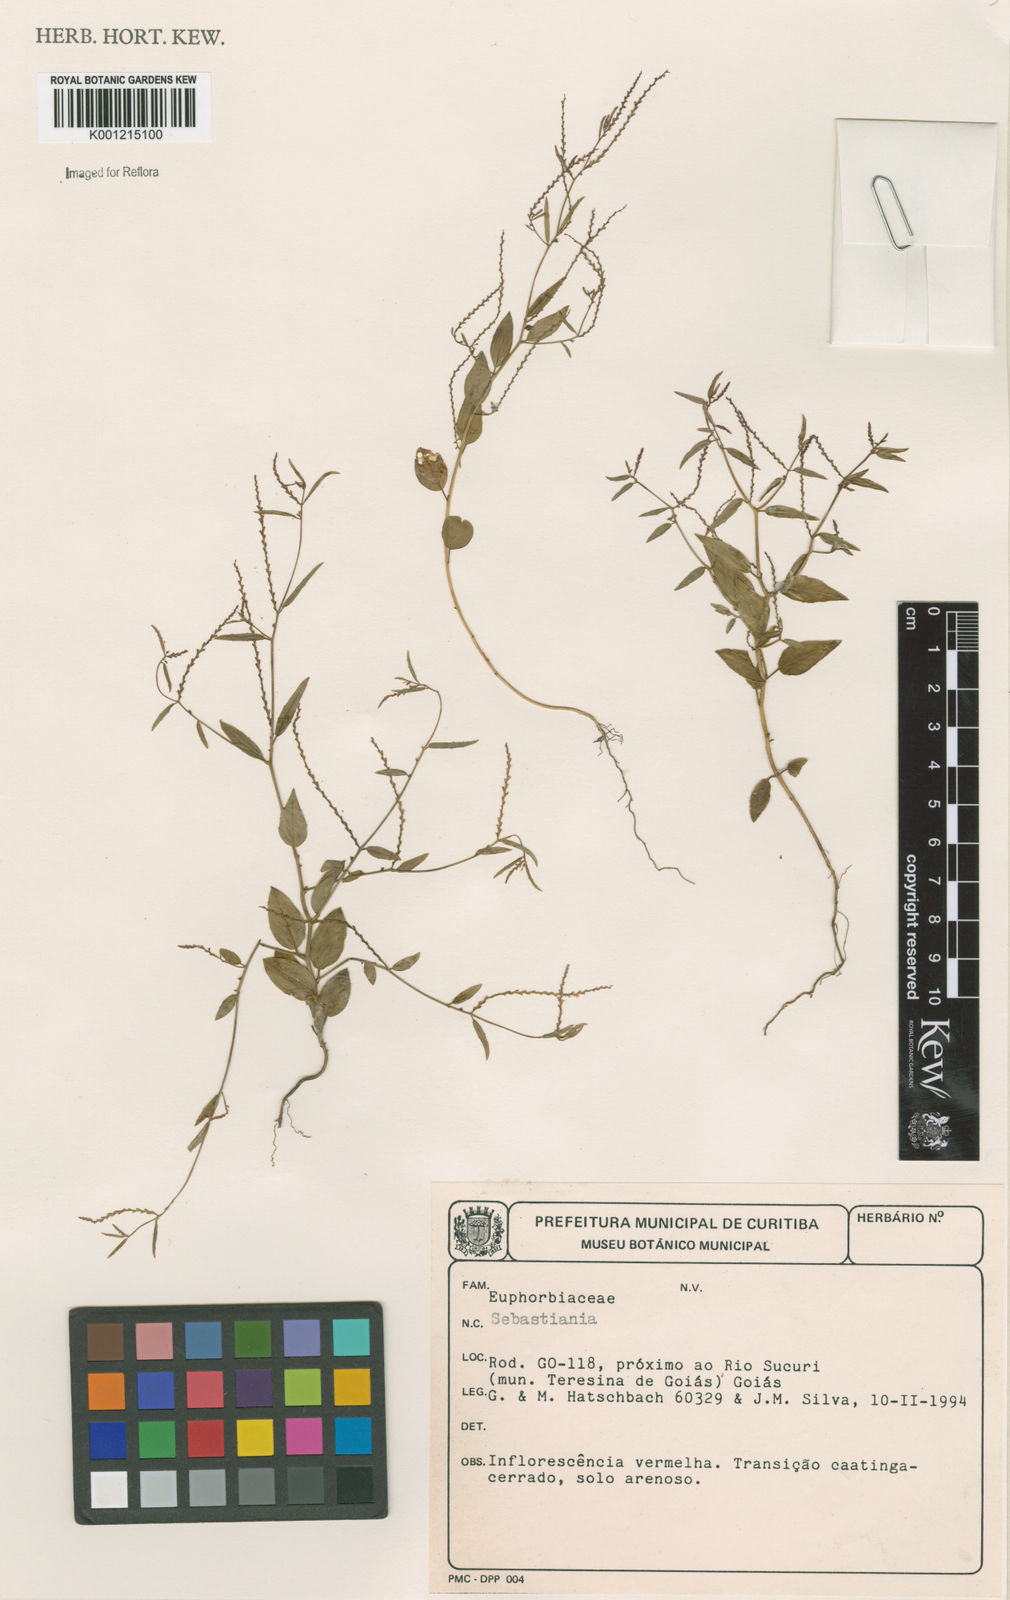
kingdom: Plantae
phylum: Tracheophyta
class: Magnoliopsida
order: Malpighiales
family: Euphorbiaceae
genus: Sebastiania
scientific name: Sebastiania
